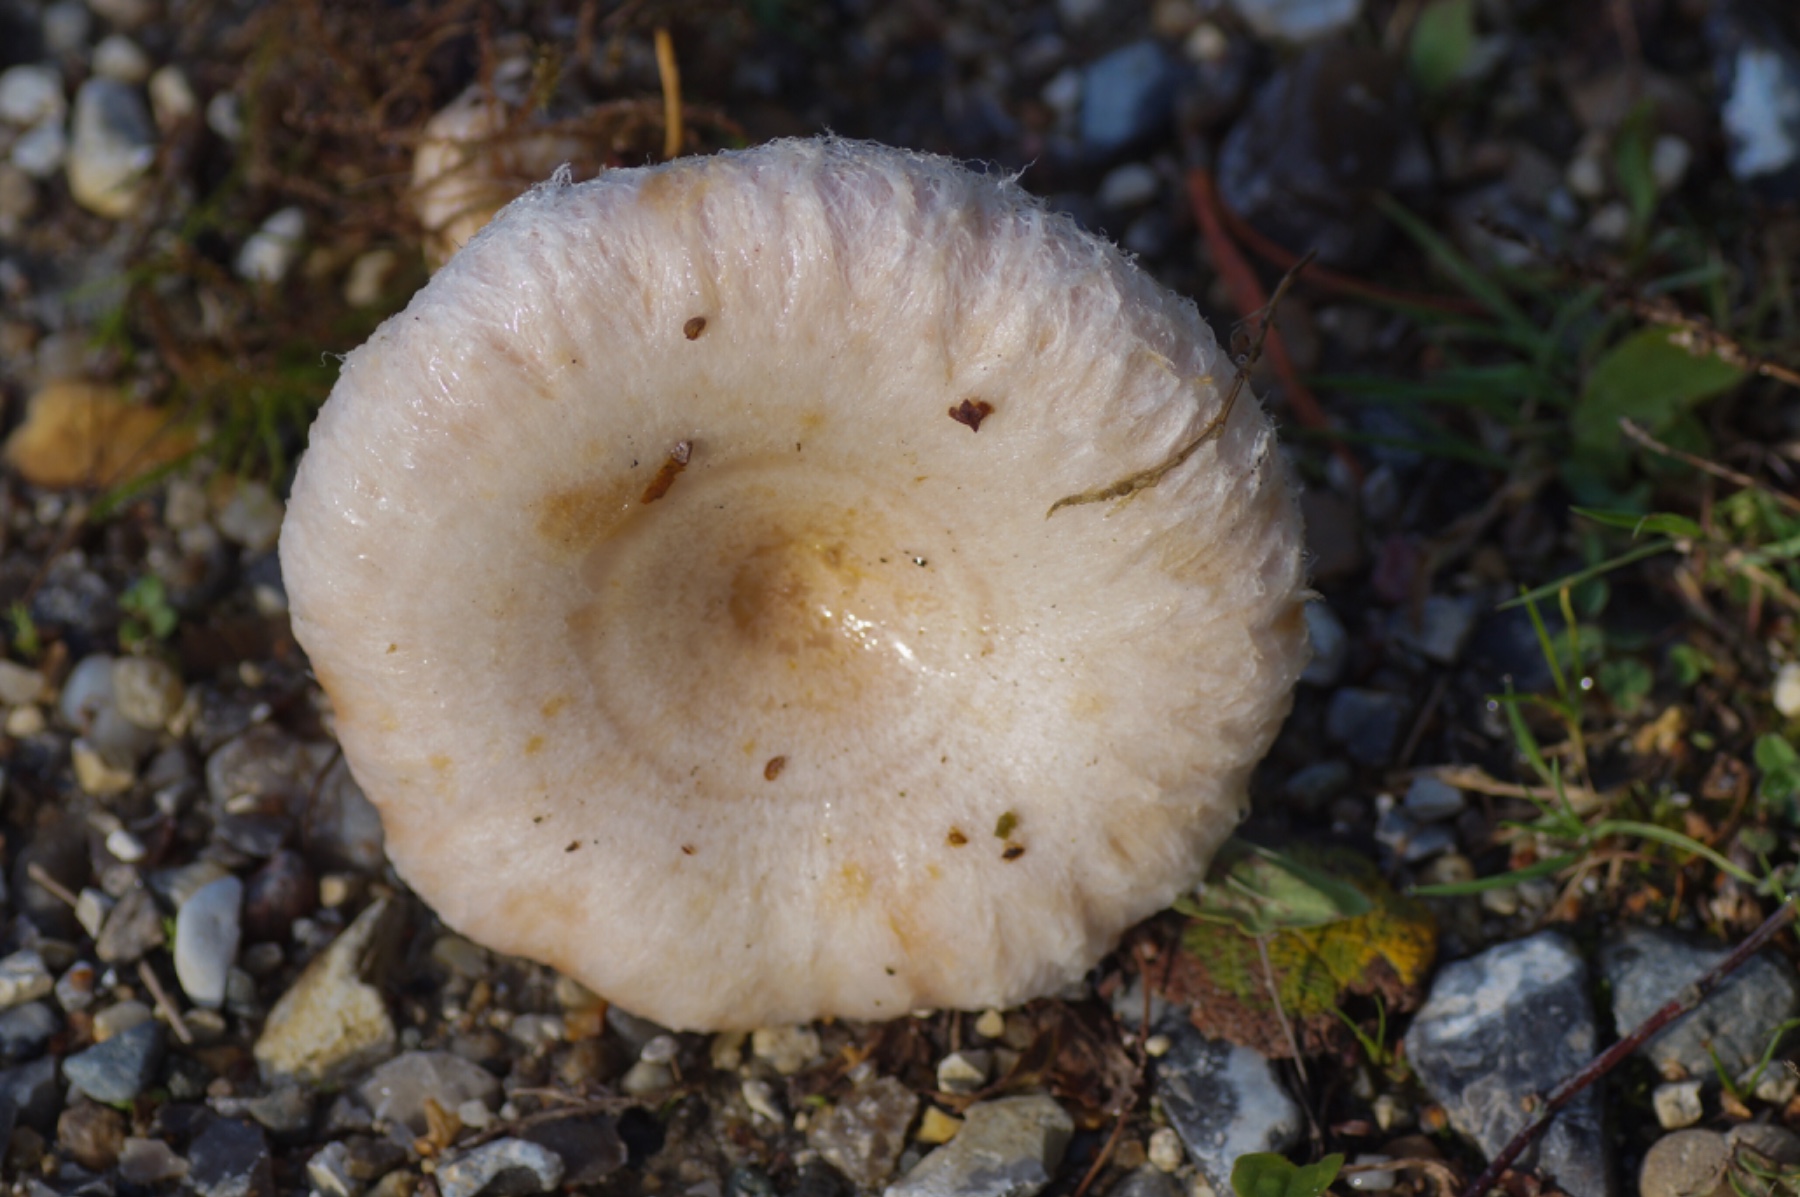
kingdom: Fungi
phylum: Basidiomycota
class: Agaricomycetes
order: Russulales
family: Russulaceae
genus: Lactarius
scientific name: Lactarius torminosus
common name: skægget mælkehat
